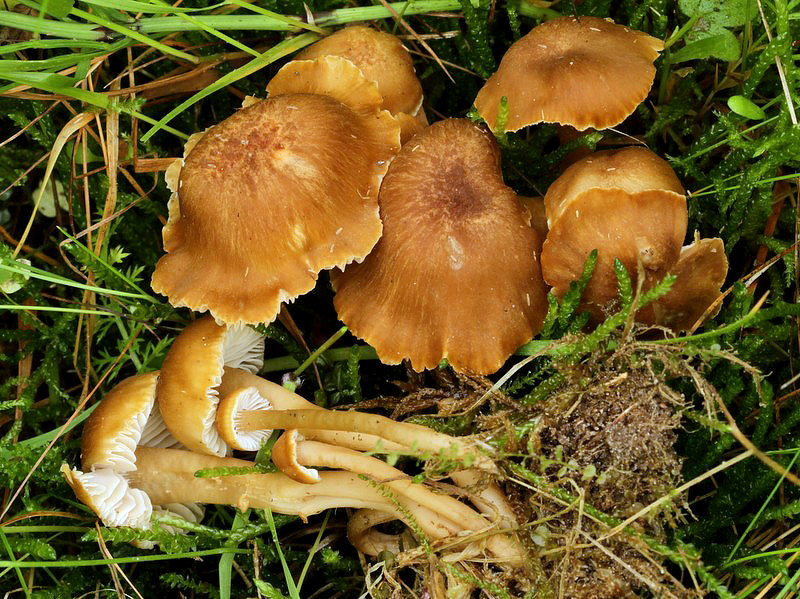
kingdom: Fungi
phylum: Basidiomycota
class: Agaricomycetes
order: Agaricales
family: Clavariaceae
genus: Camarophyllopsis
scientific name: Camarophyllopsis schulzeri
